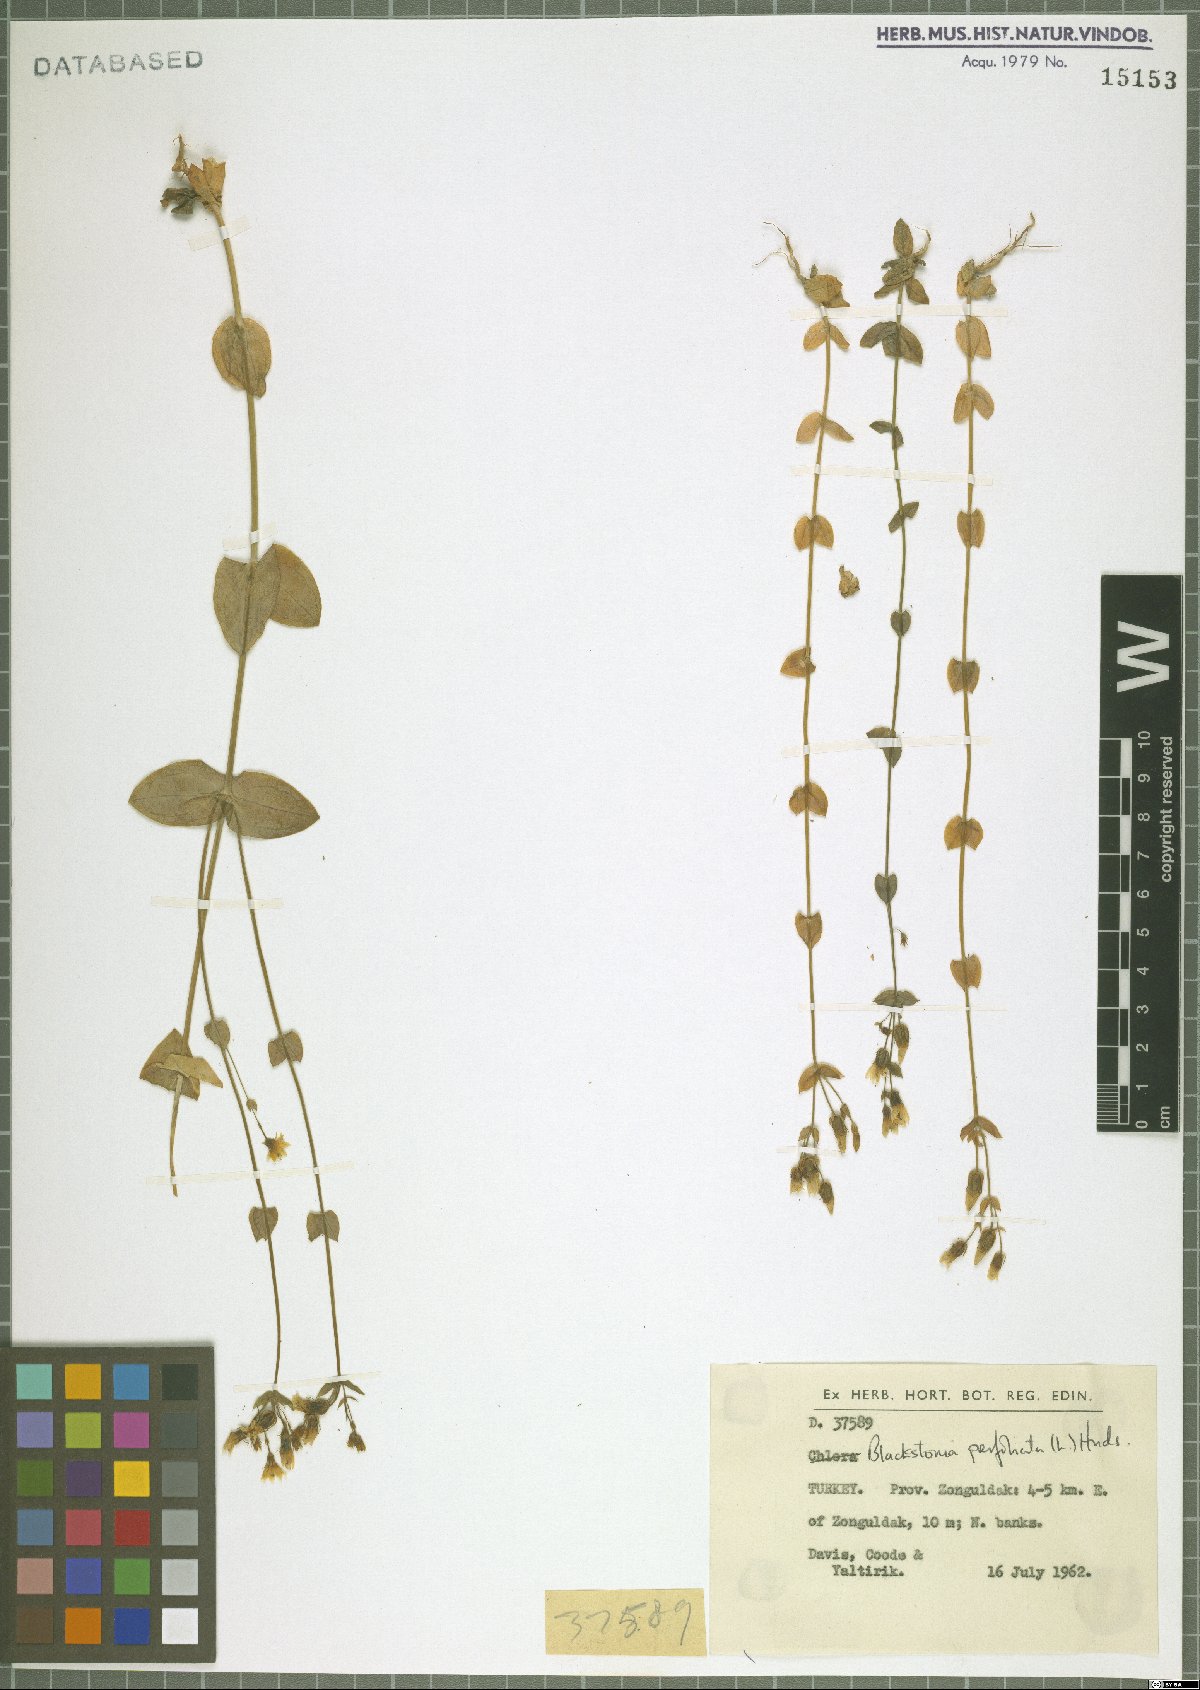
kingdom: Plantae
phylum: Tracheophyta
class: Magnoliopsida
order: Gentianales
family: Gentianaceae
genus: Blackstonia
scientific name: Blackstonia perfoliata
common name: Yellow-wort
